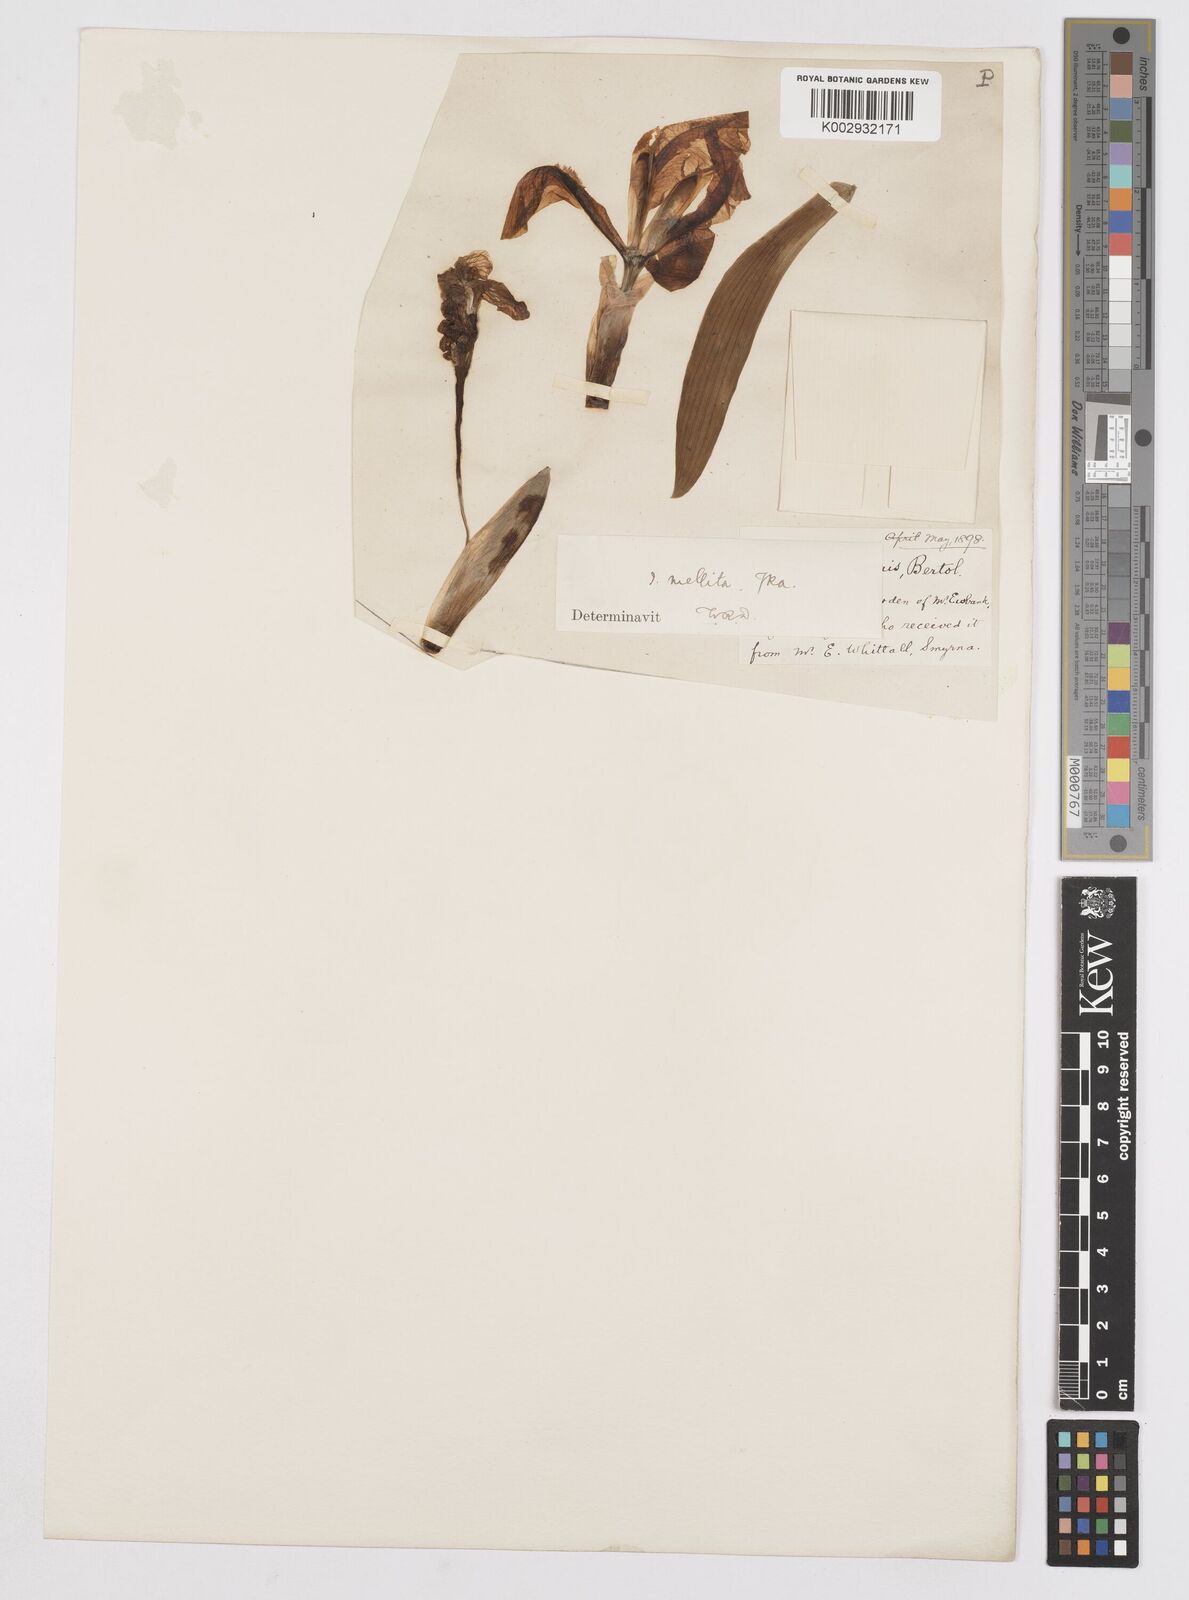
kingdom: Plantae
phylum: Tracheophyta
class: Liliopsida
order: Asparagales
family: Iridaceae
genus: Iris
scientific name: Iris suaveolens
